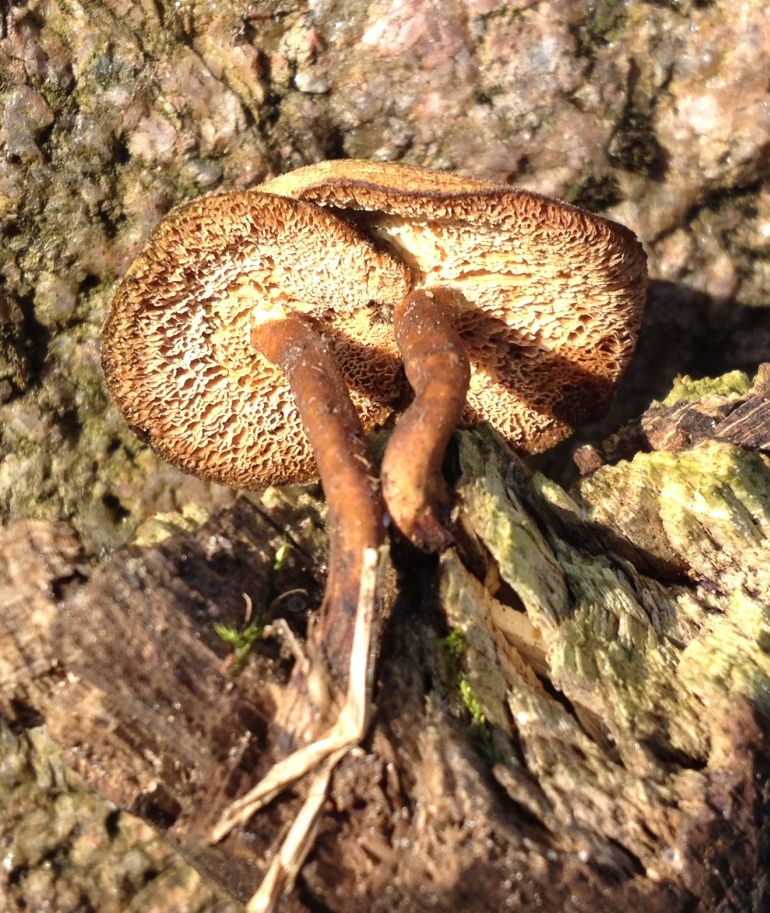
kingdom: Fungi
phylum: Basidiomycota
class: Agaricomycetes
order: Polyporales
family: Polyporaceae
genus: Lentinus
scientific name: Lentinus brumalis
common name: vinter-stilkporesvamp
